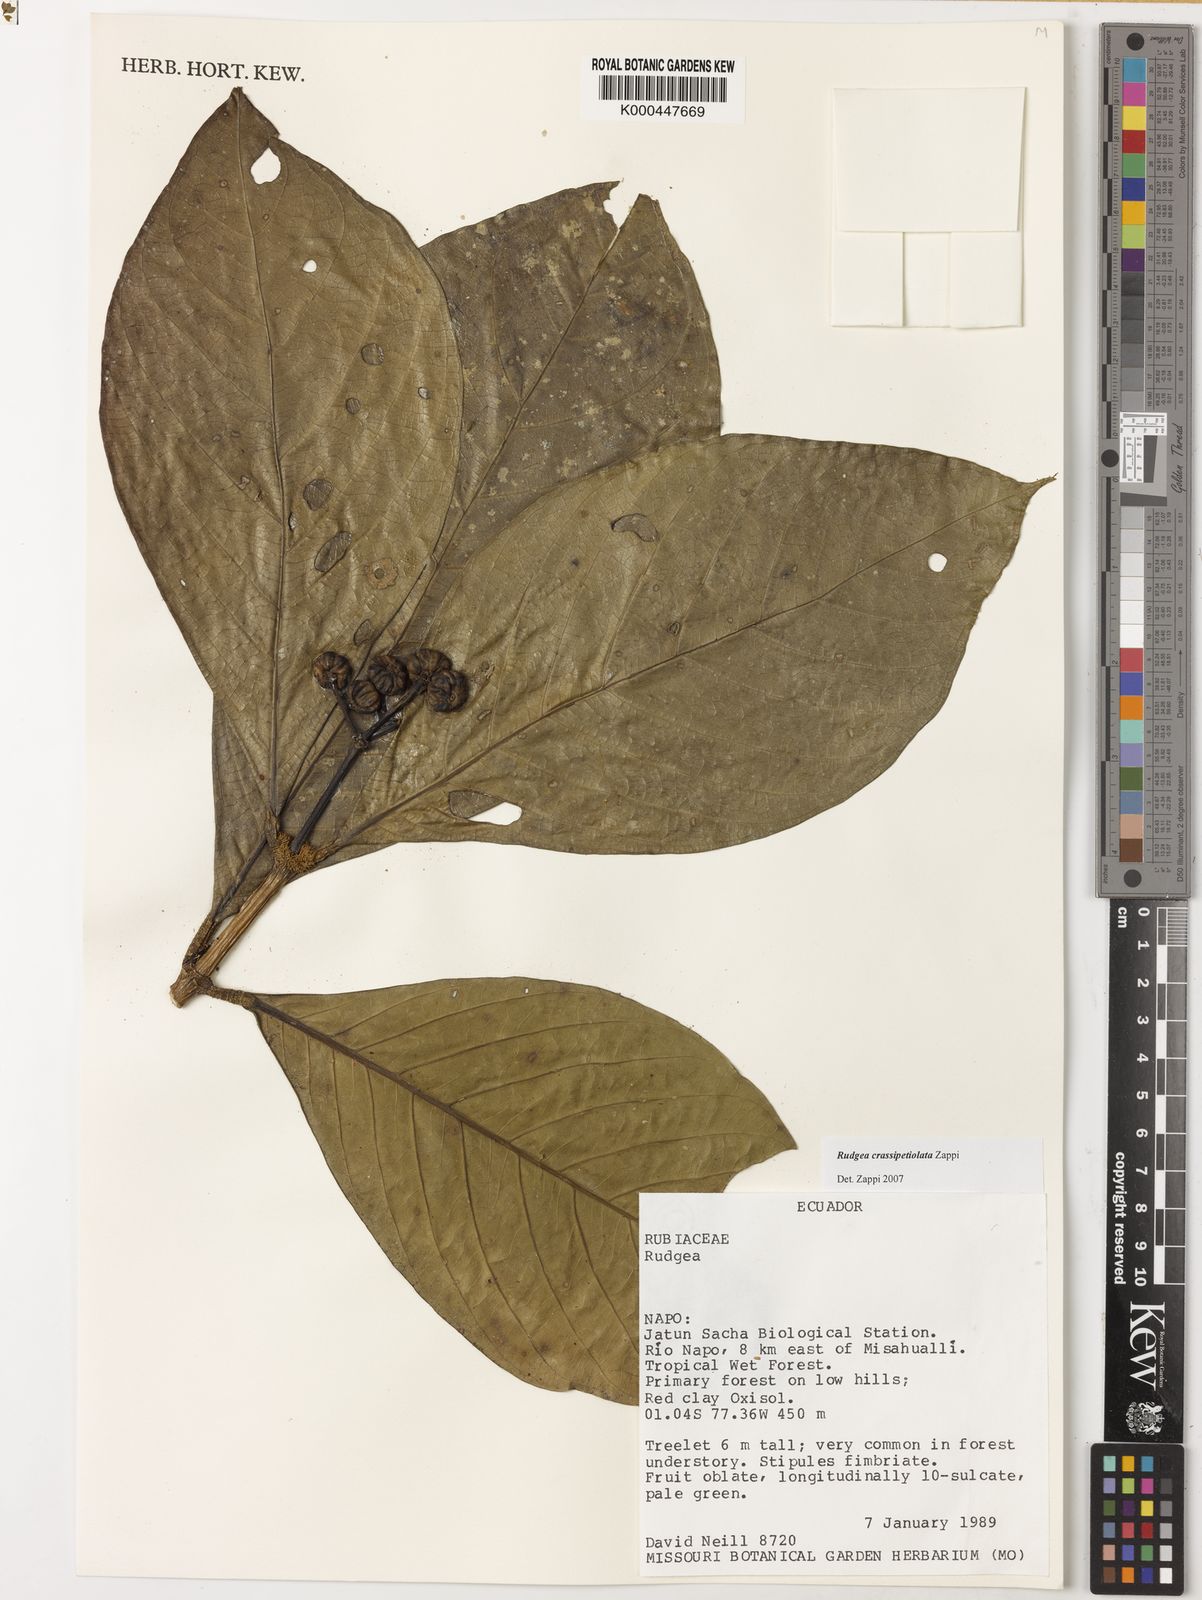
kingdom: Plantae
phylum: Tracheophyta
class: Magnoliopsida
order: Gentianales
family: Rubiaceae
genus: Rudgea
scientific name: Rudgea crassipetiolata
